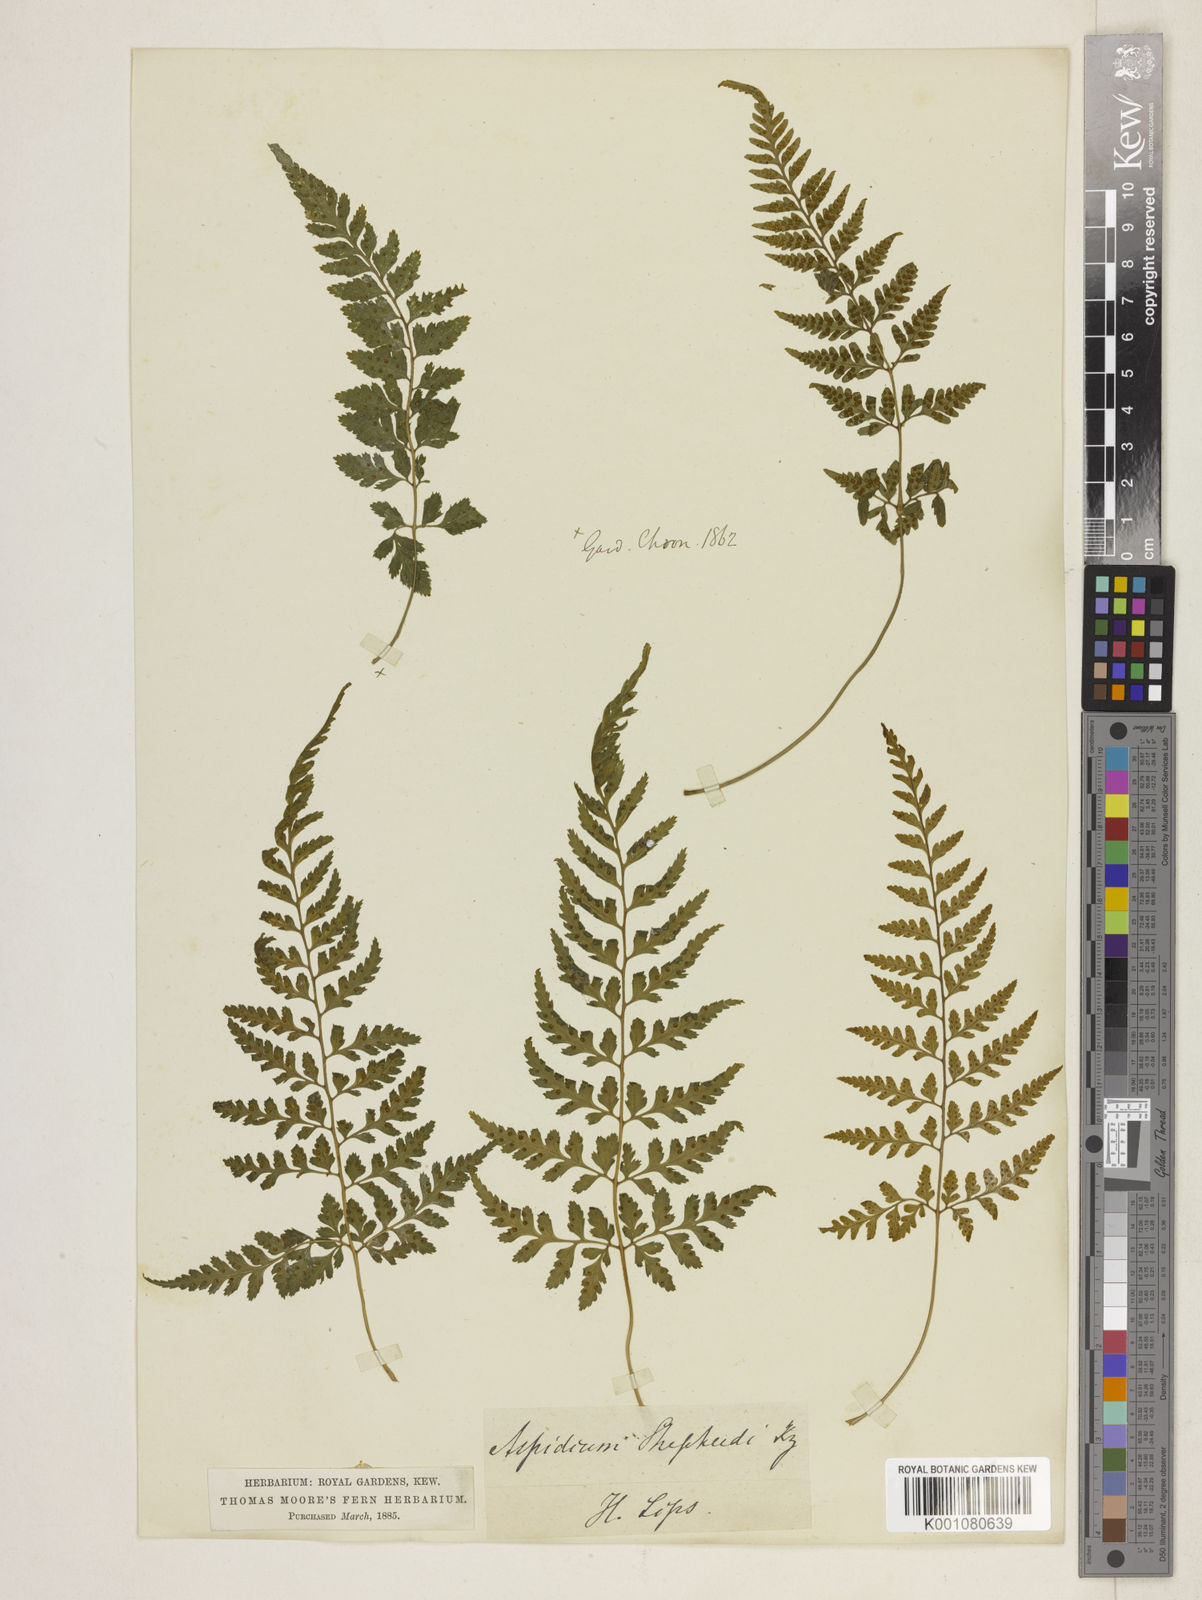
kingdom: Plantae
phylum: Tracheophyta
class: Polypodiopsida
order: Polypodiales
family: Dryopteridaceae
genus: Lastreopsis
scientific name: Lastreopsis hispida
